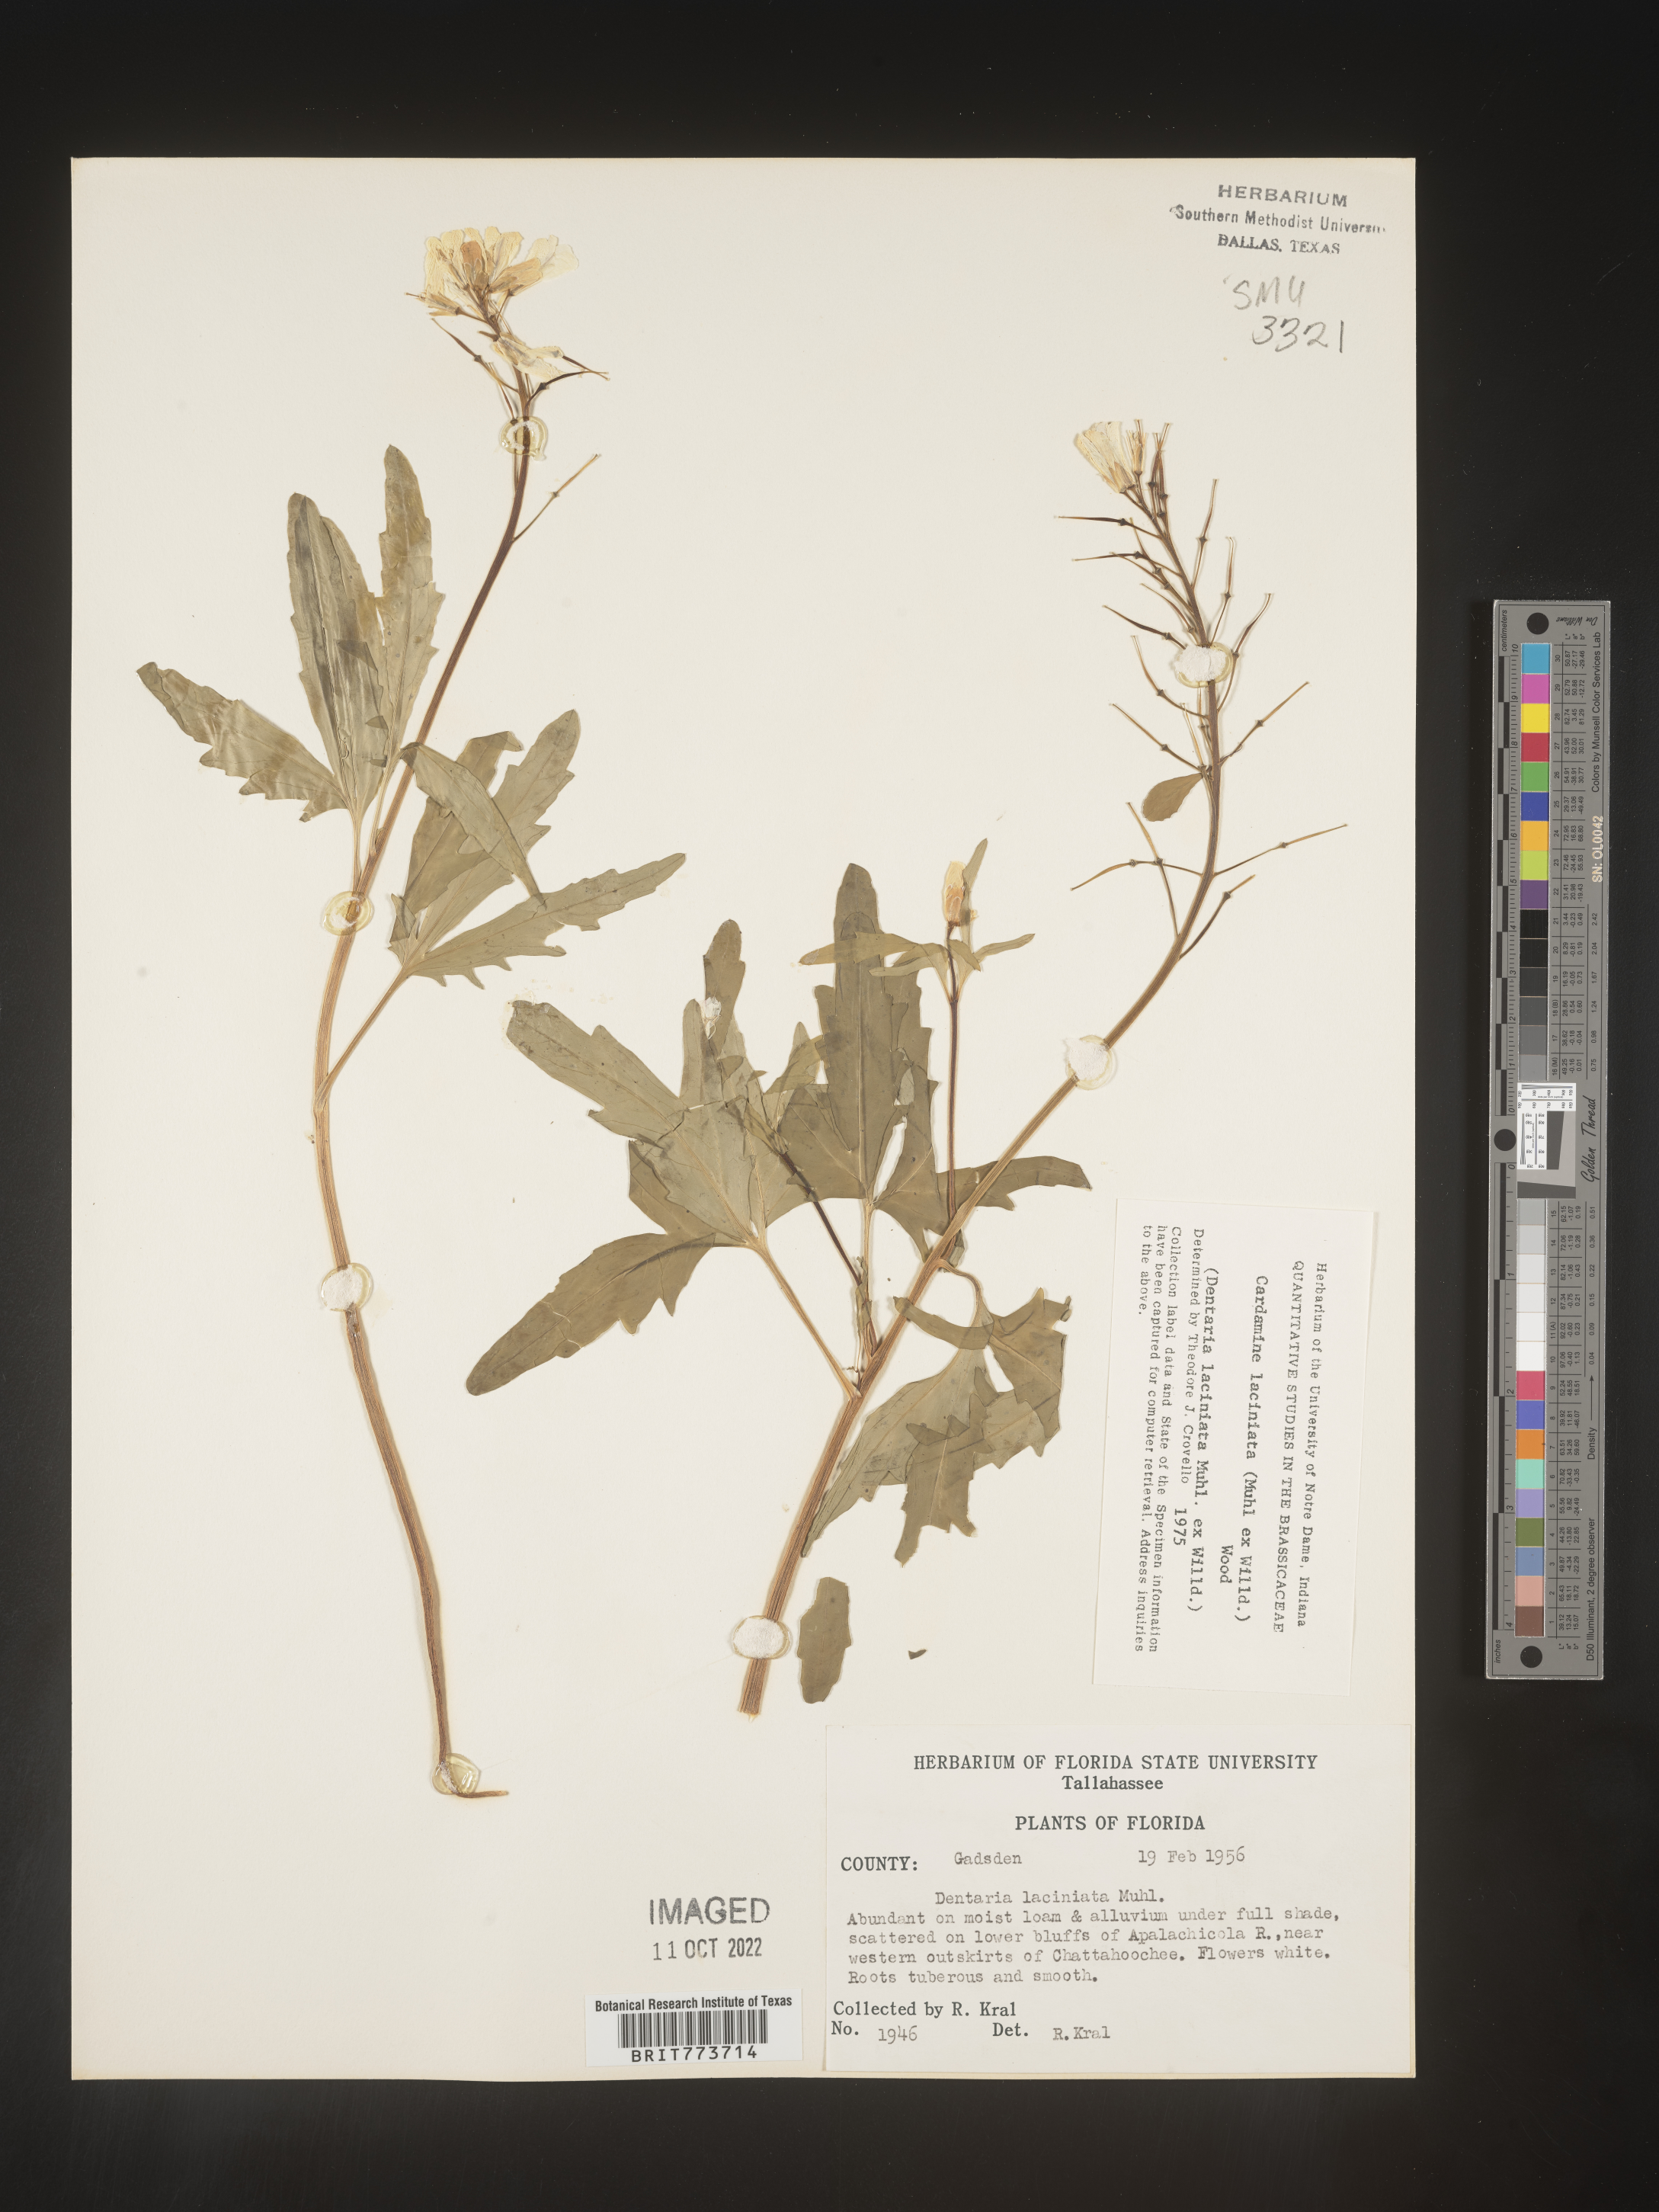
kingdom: Plantae
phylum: Tracheophyta
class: Magnoliopsida
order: Brassicales
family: Brassicaceae
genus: Rorippa
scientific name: Rorippa laciniata
